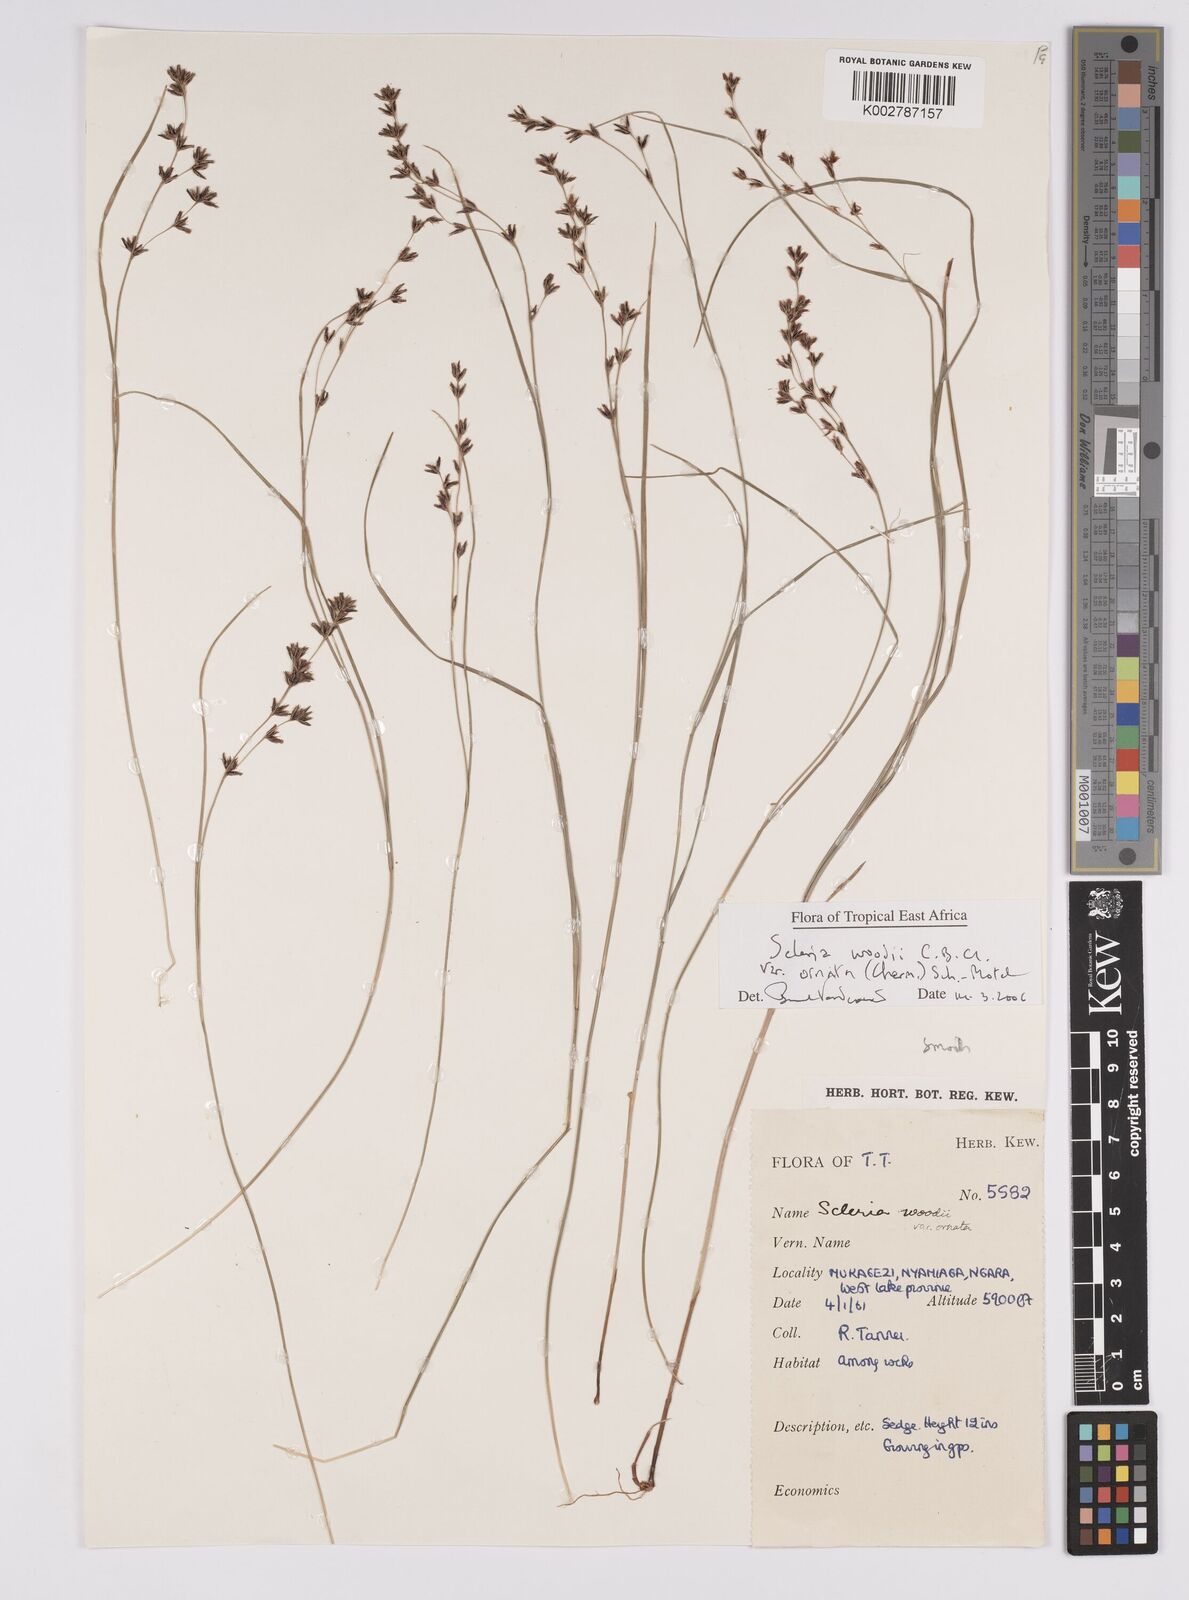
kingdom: Plantae
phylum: Tracheophyta
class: Liliopsida
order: Poales
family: Cyperaceae
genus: Scleria
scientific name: Scleria woodii
